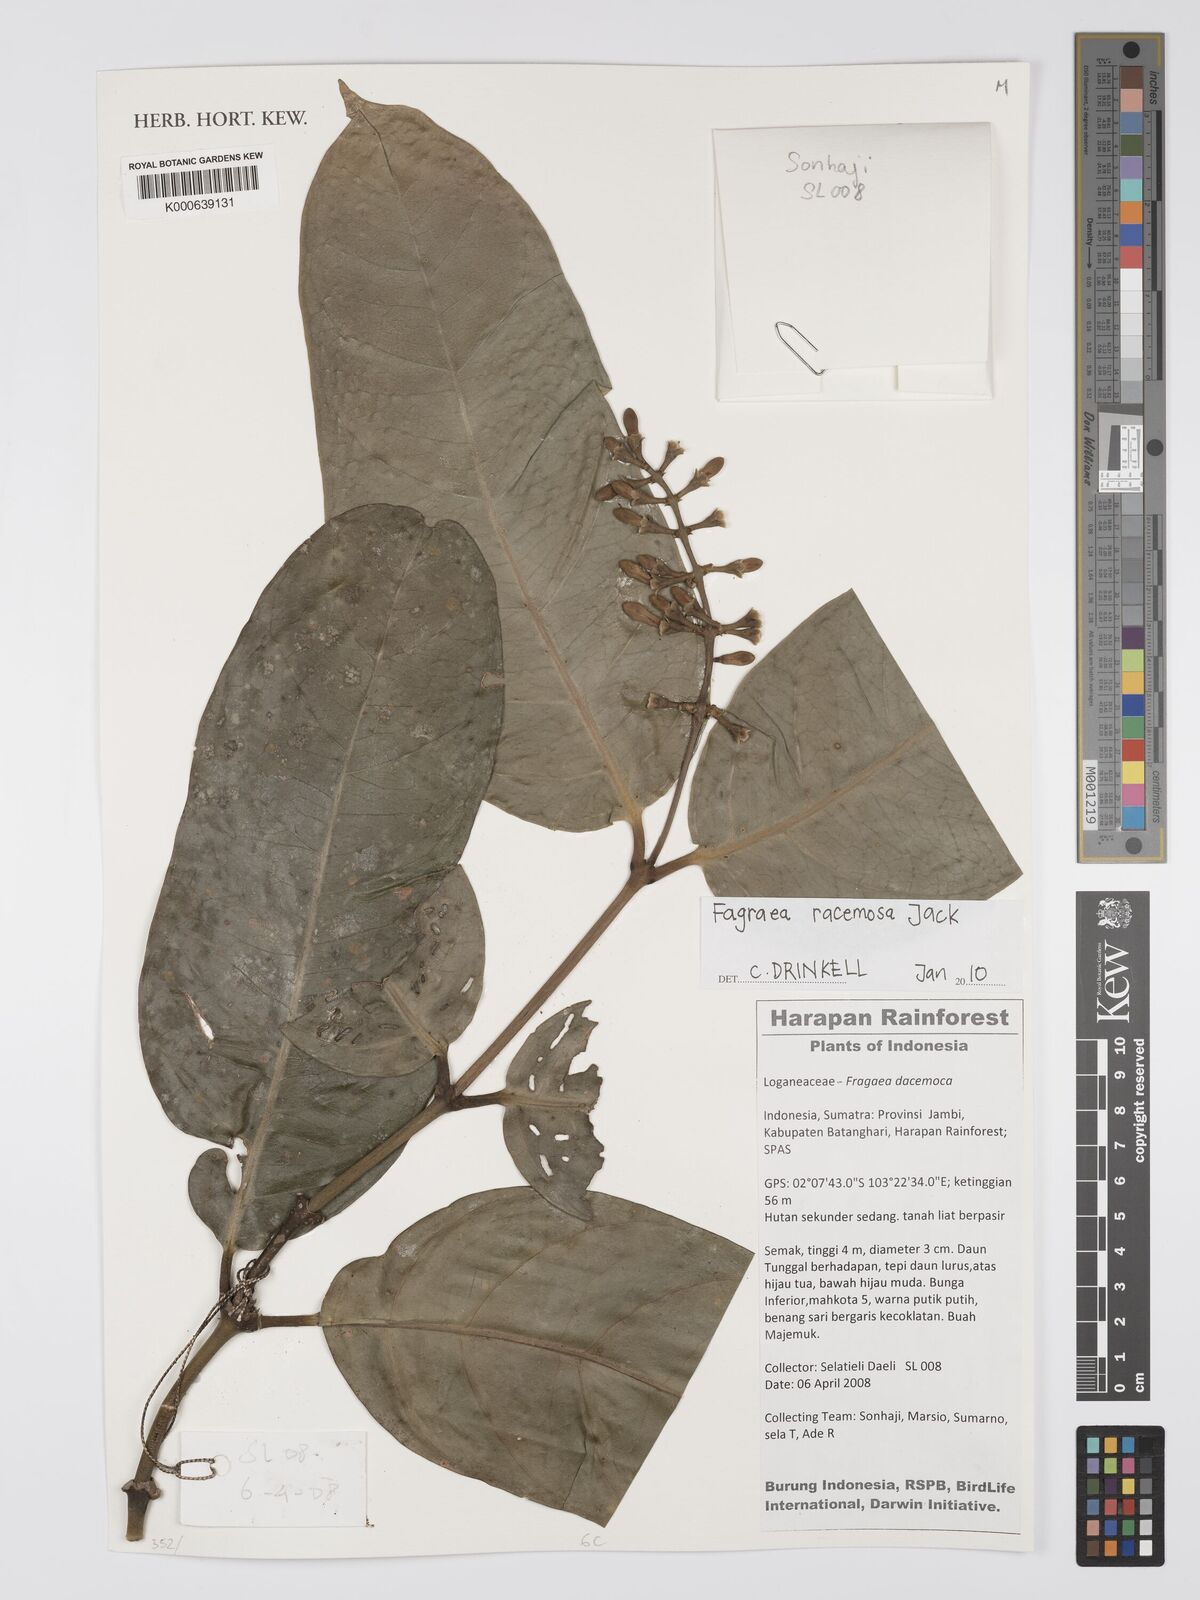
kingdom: Plantae
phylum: Tracheophyta
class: Magnoliopsida
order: Gentianales
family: Gentianaceae
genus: Fagraea
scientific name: Fagraea
